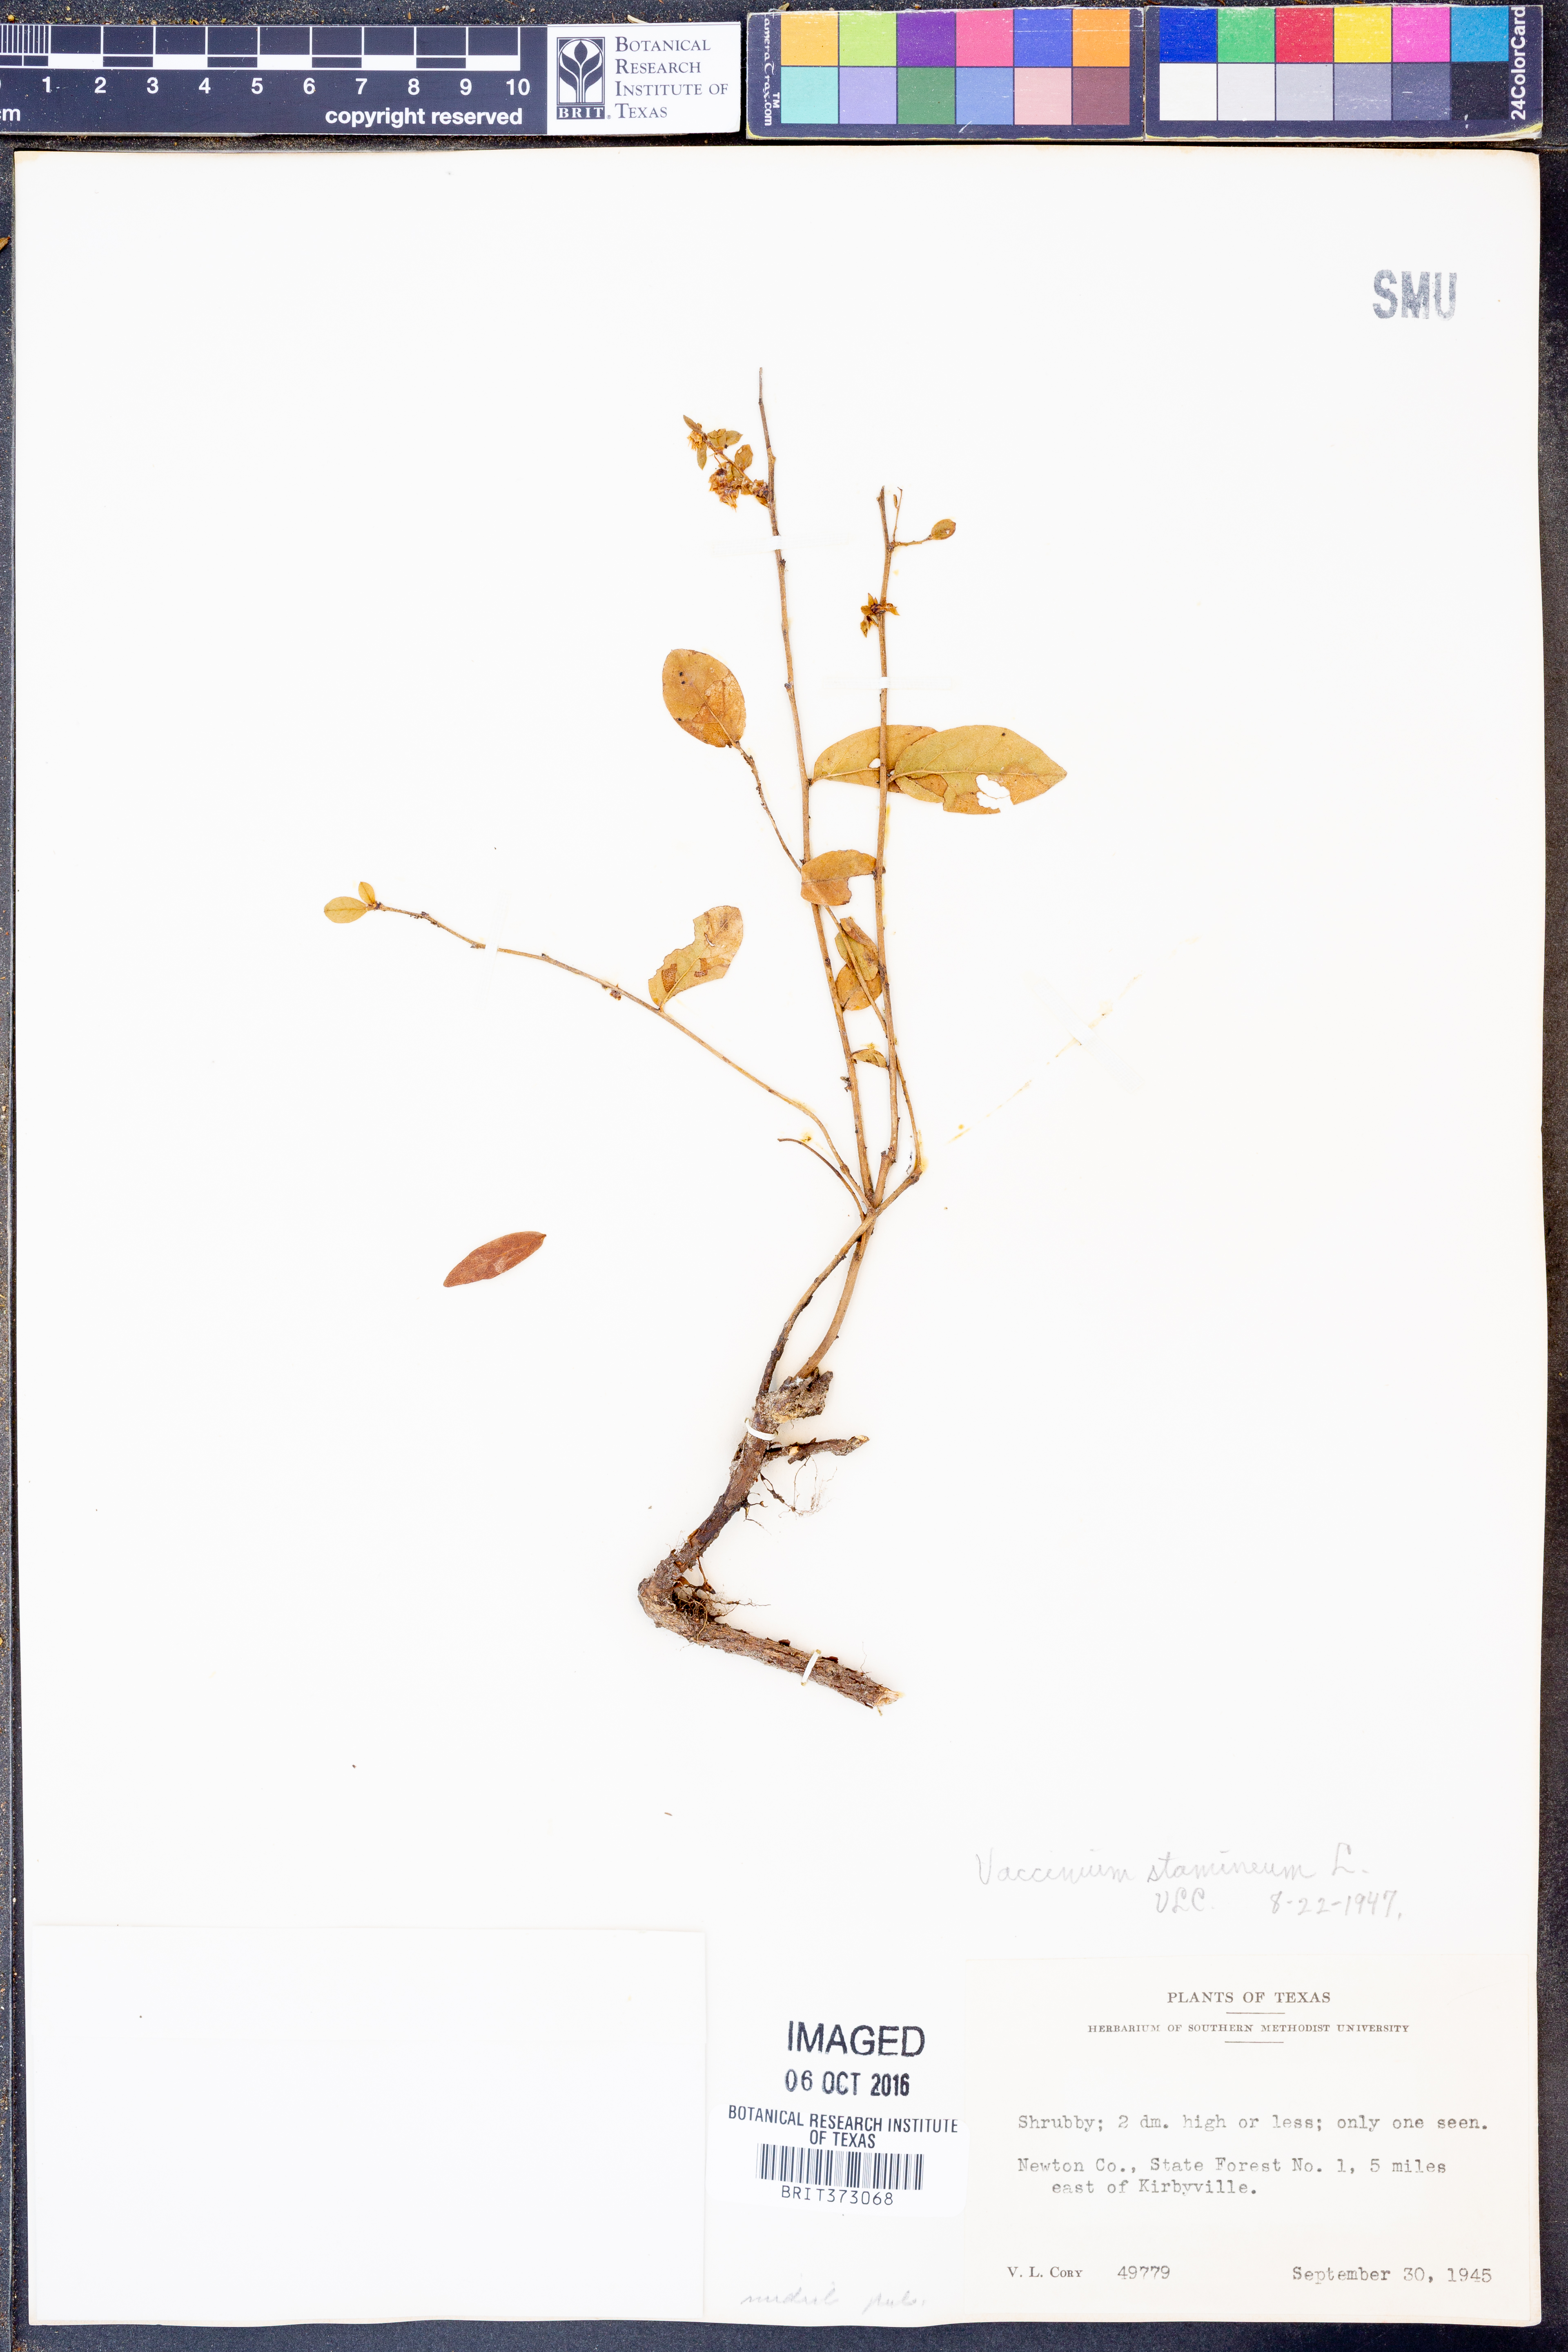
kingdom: Plantae
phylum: Tracheophyta
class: Magnoliopsida
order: Ericales
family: Ericaceae
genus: Vaccinium
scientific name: Vaccinium stamineum
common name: Deerberry
